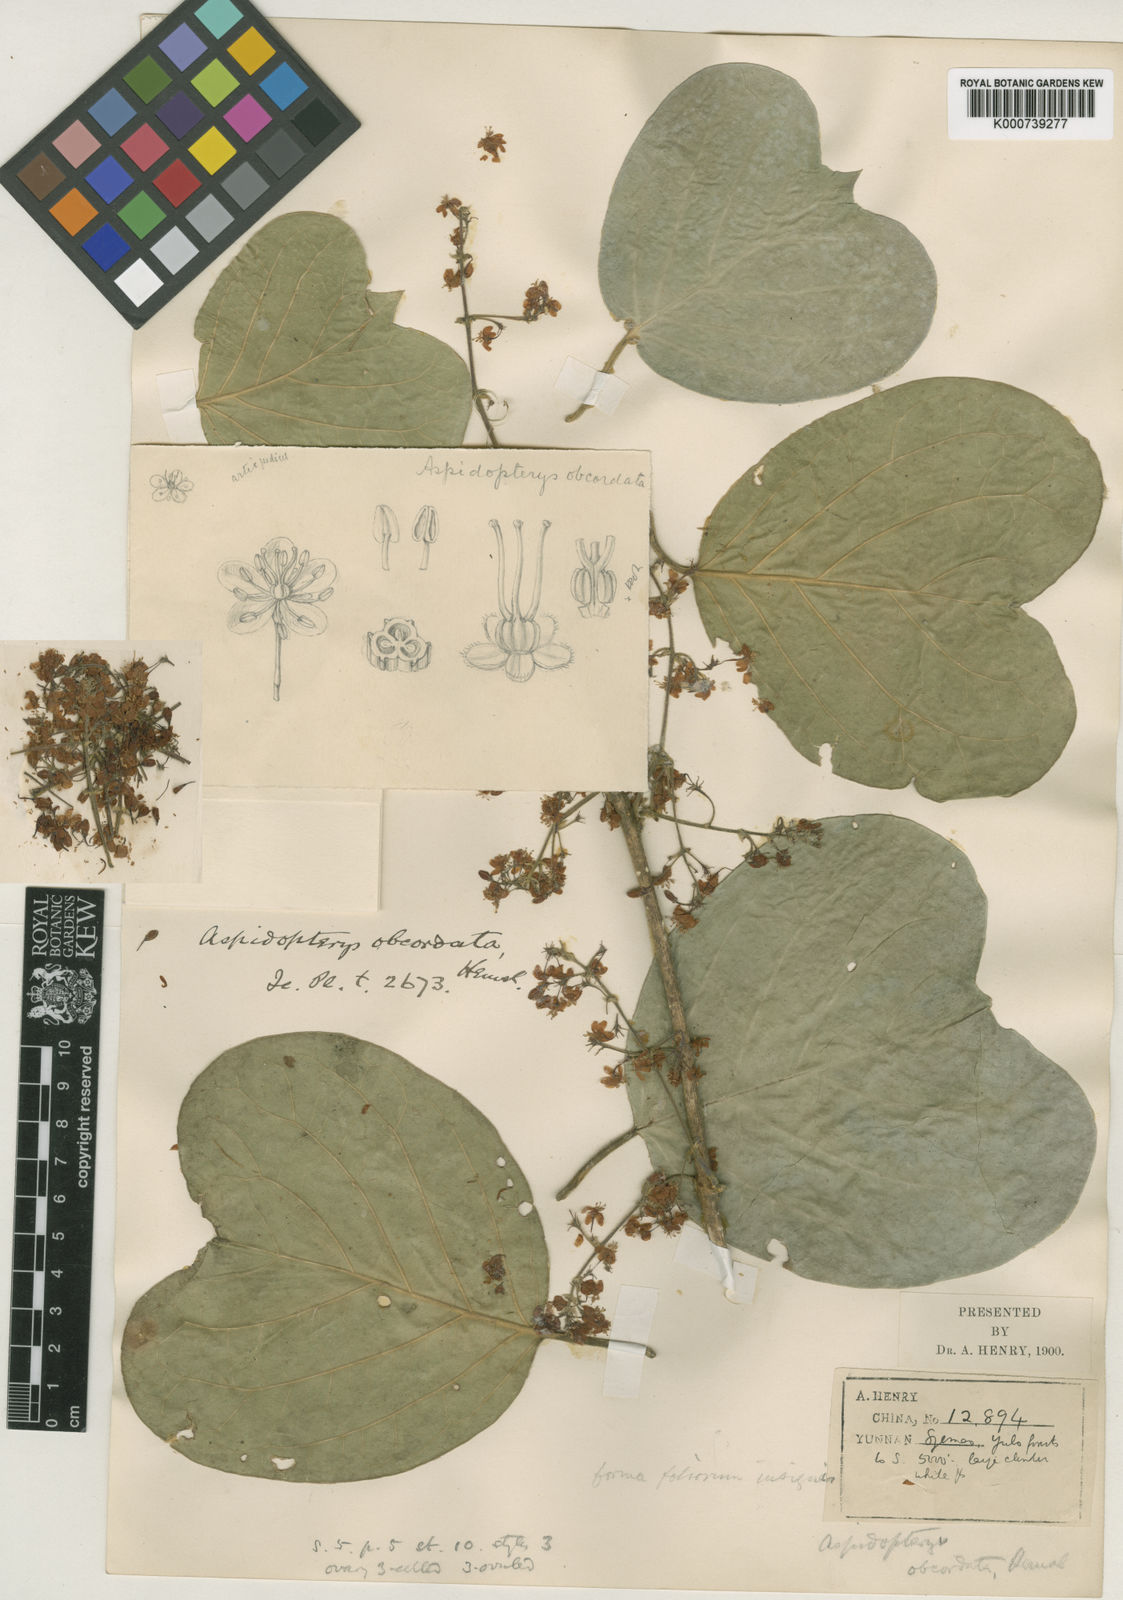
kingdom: Plantae
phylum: Tracheophyta
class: Magnoliopsida
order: Malpighiales
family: Malpighiaceae
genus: Aspidopterys
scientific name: Aspidopterys obcordata
